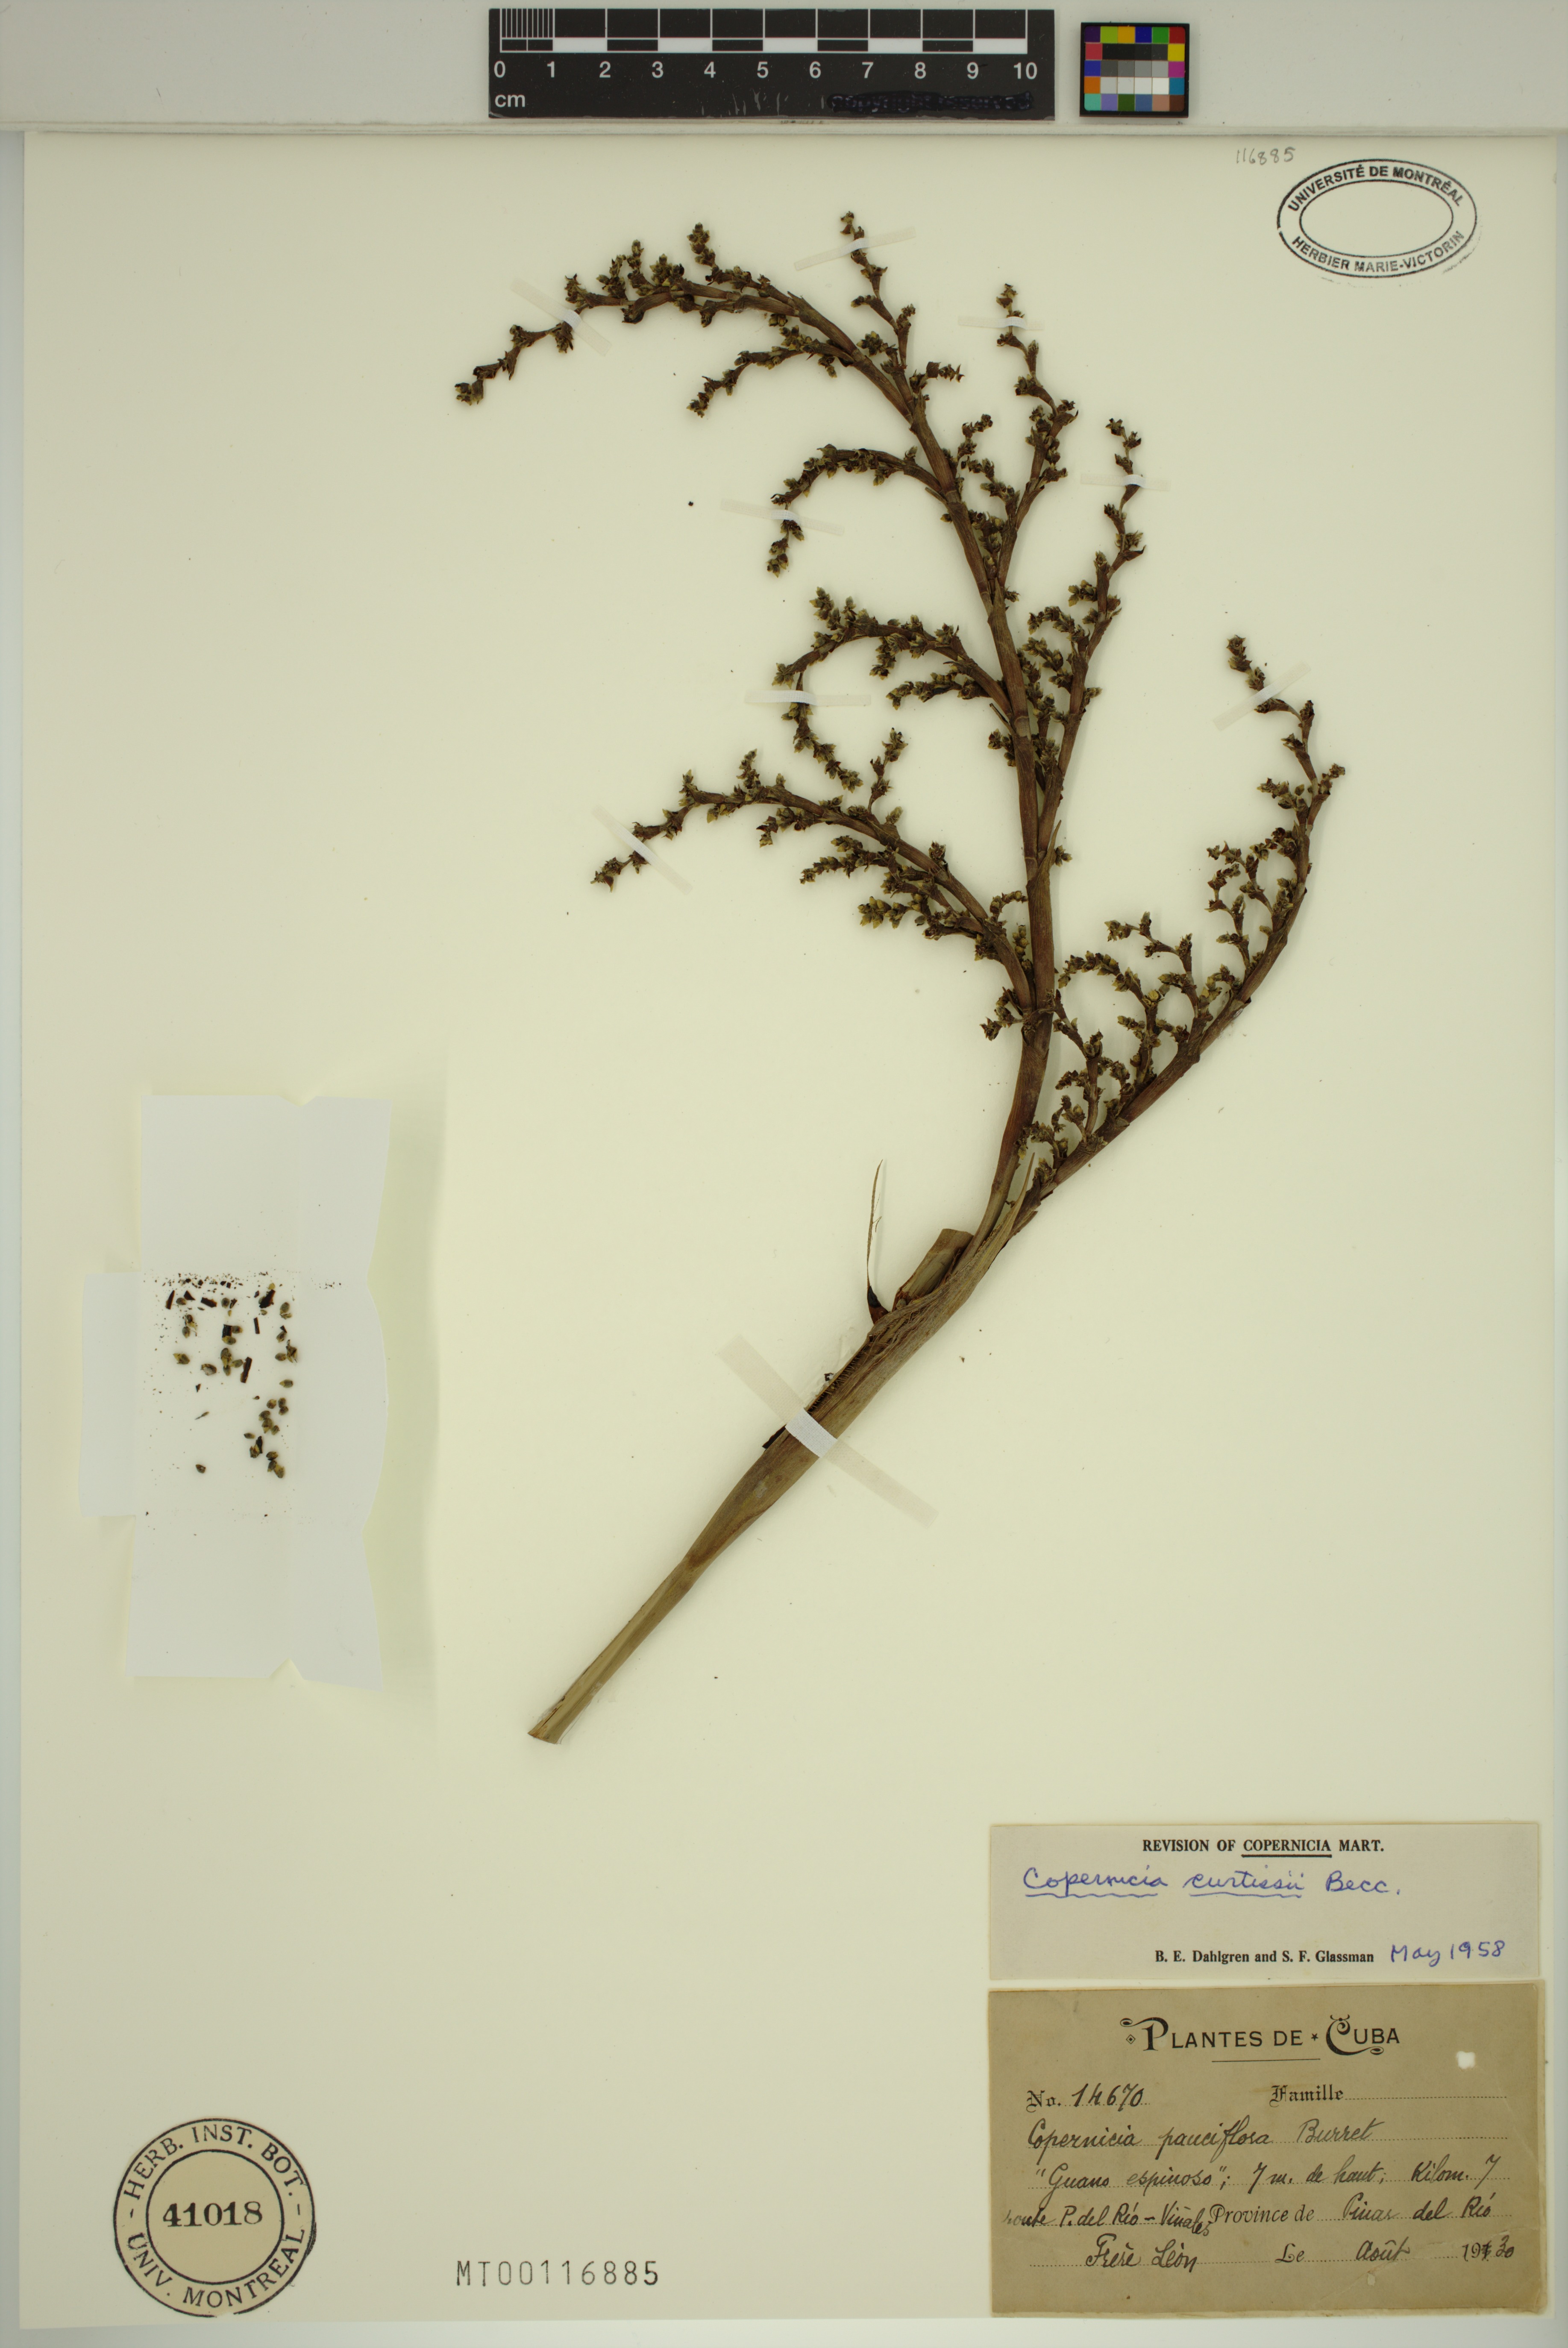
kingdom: Plantae
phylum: Tracheophyta
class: Liliopsida
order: Arecales
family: Arecaceae
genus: Copernicia
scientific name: Copernicia curtissii
